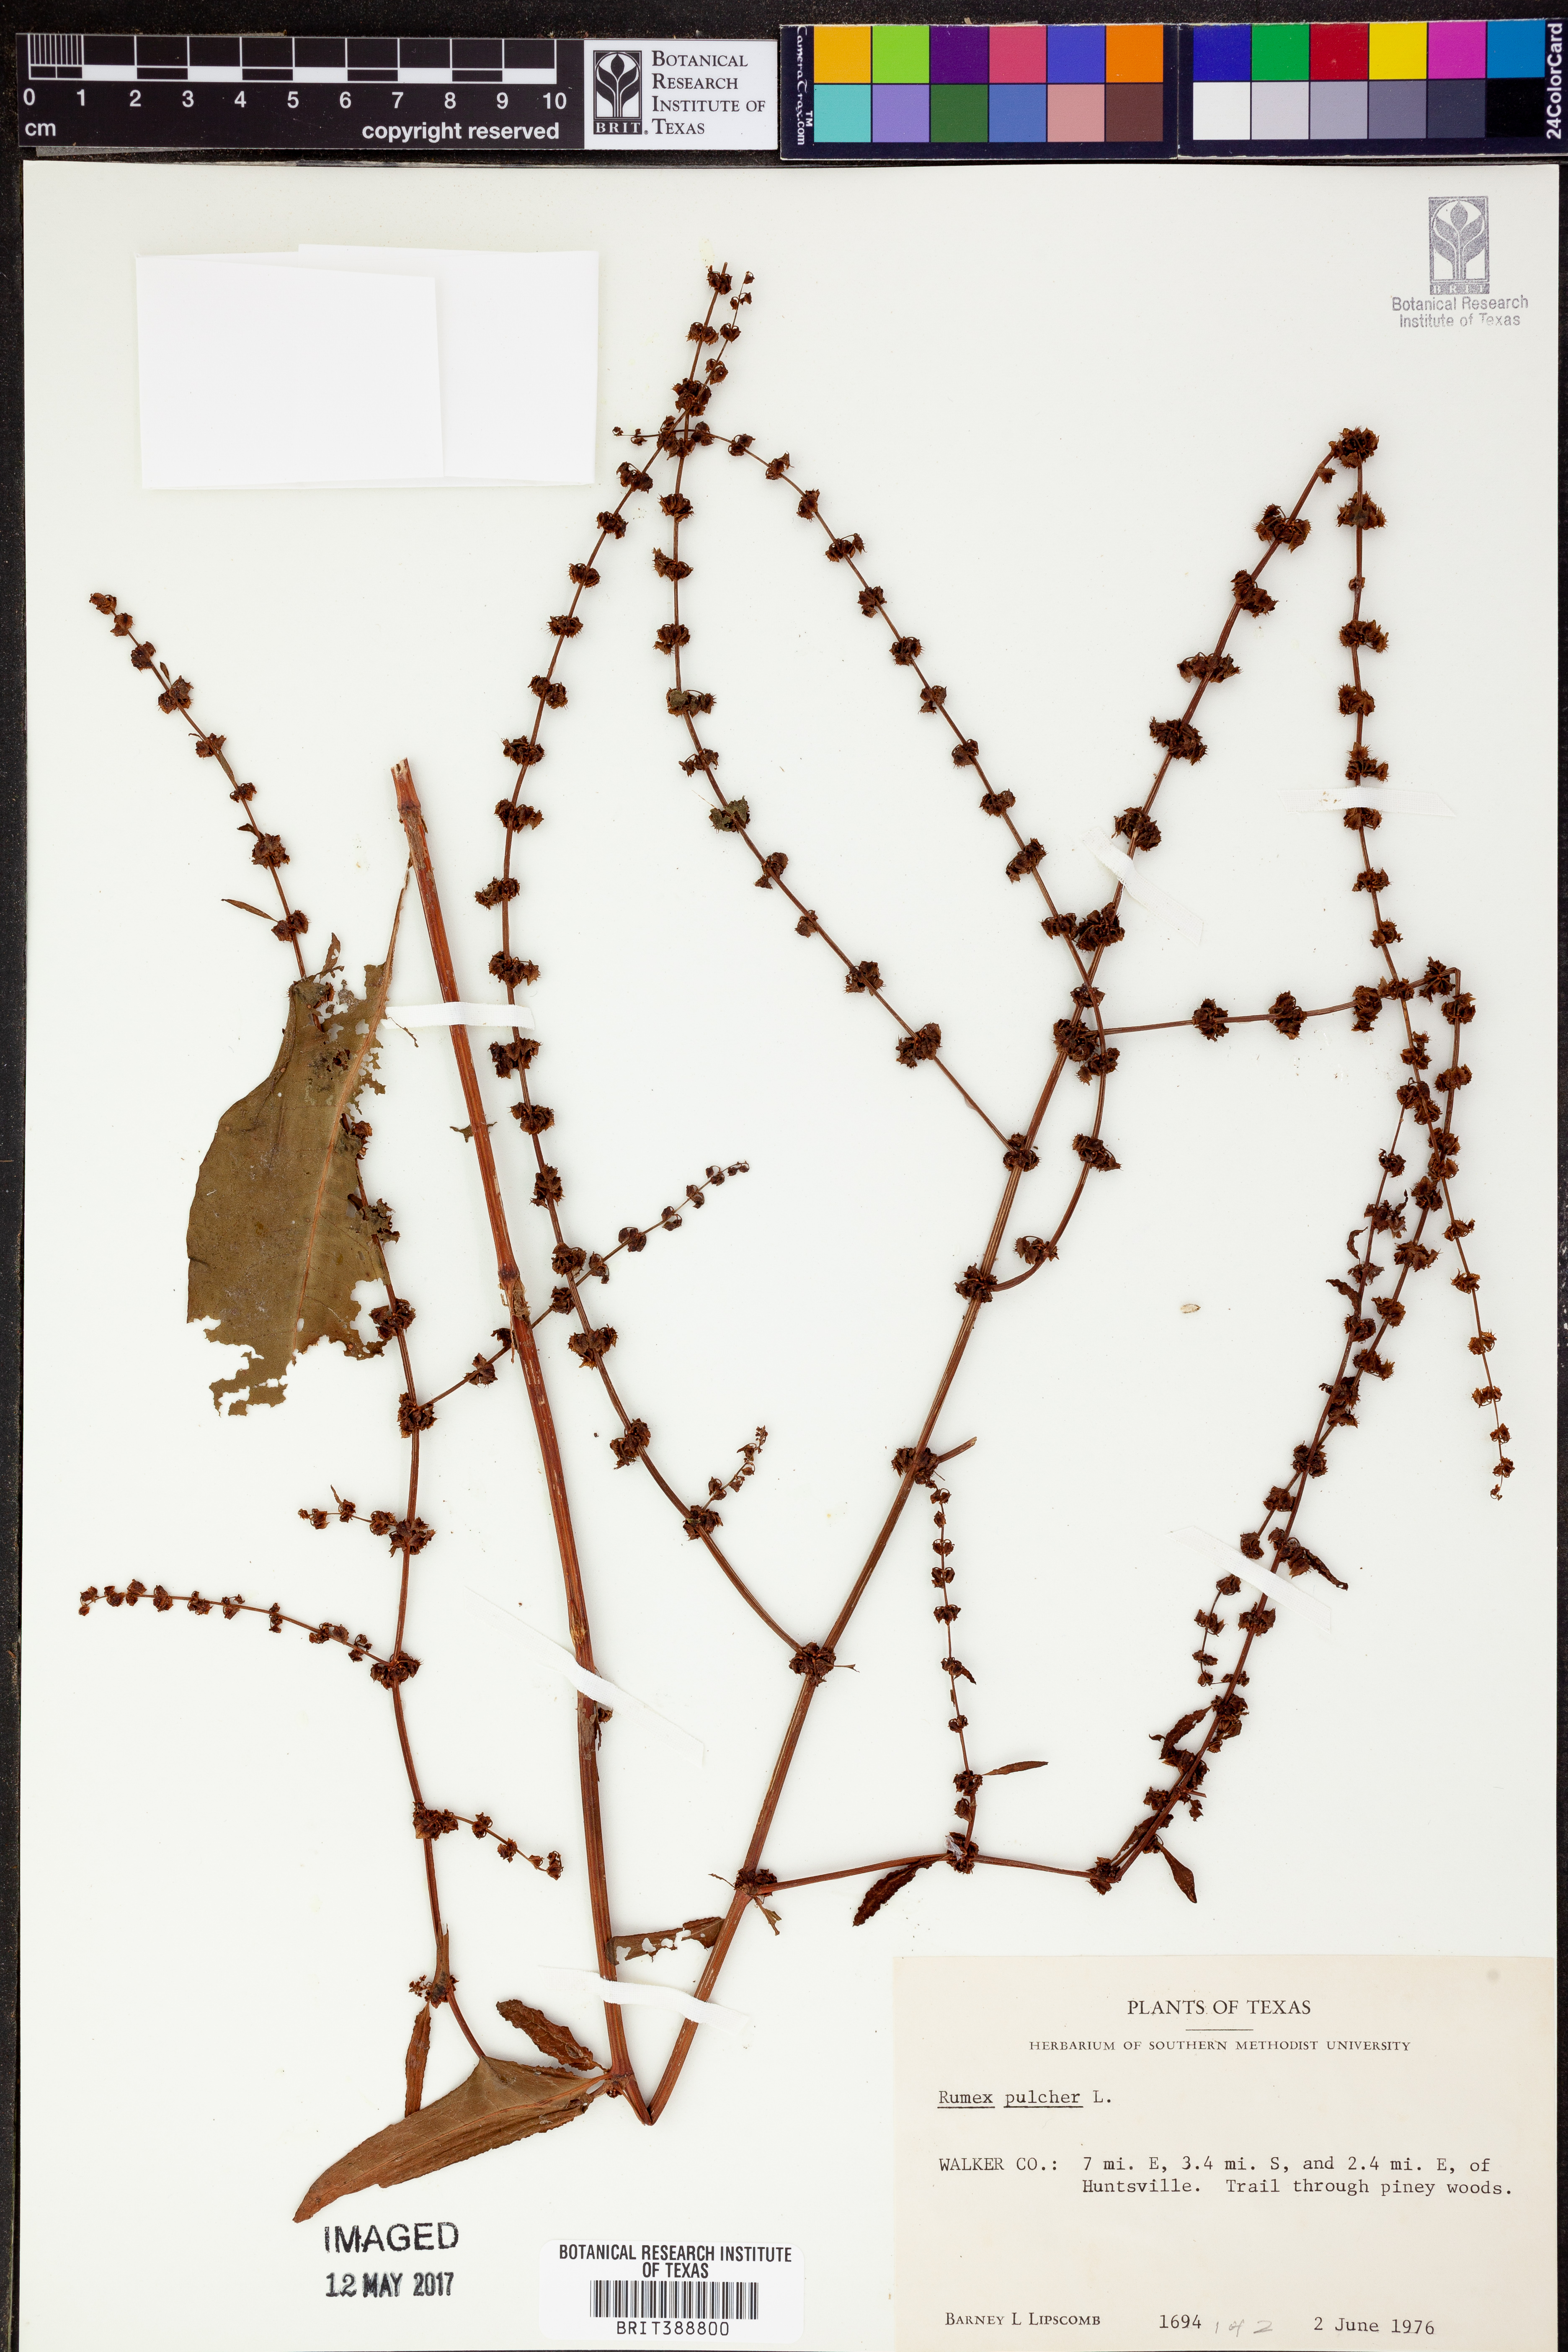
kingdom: Plantae
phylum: Tracheophyta
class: Magnoliopsida
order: Caryophyllales
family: Polygonaceae
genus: Rumex
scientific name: Rumex pulcher
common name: Fiddle dock
